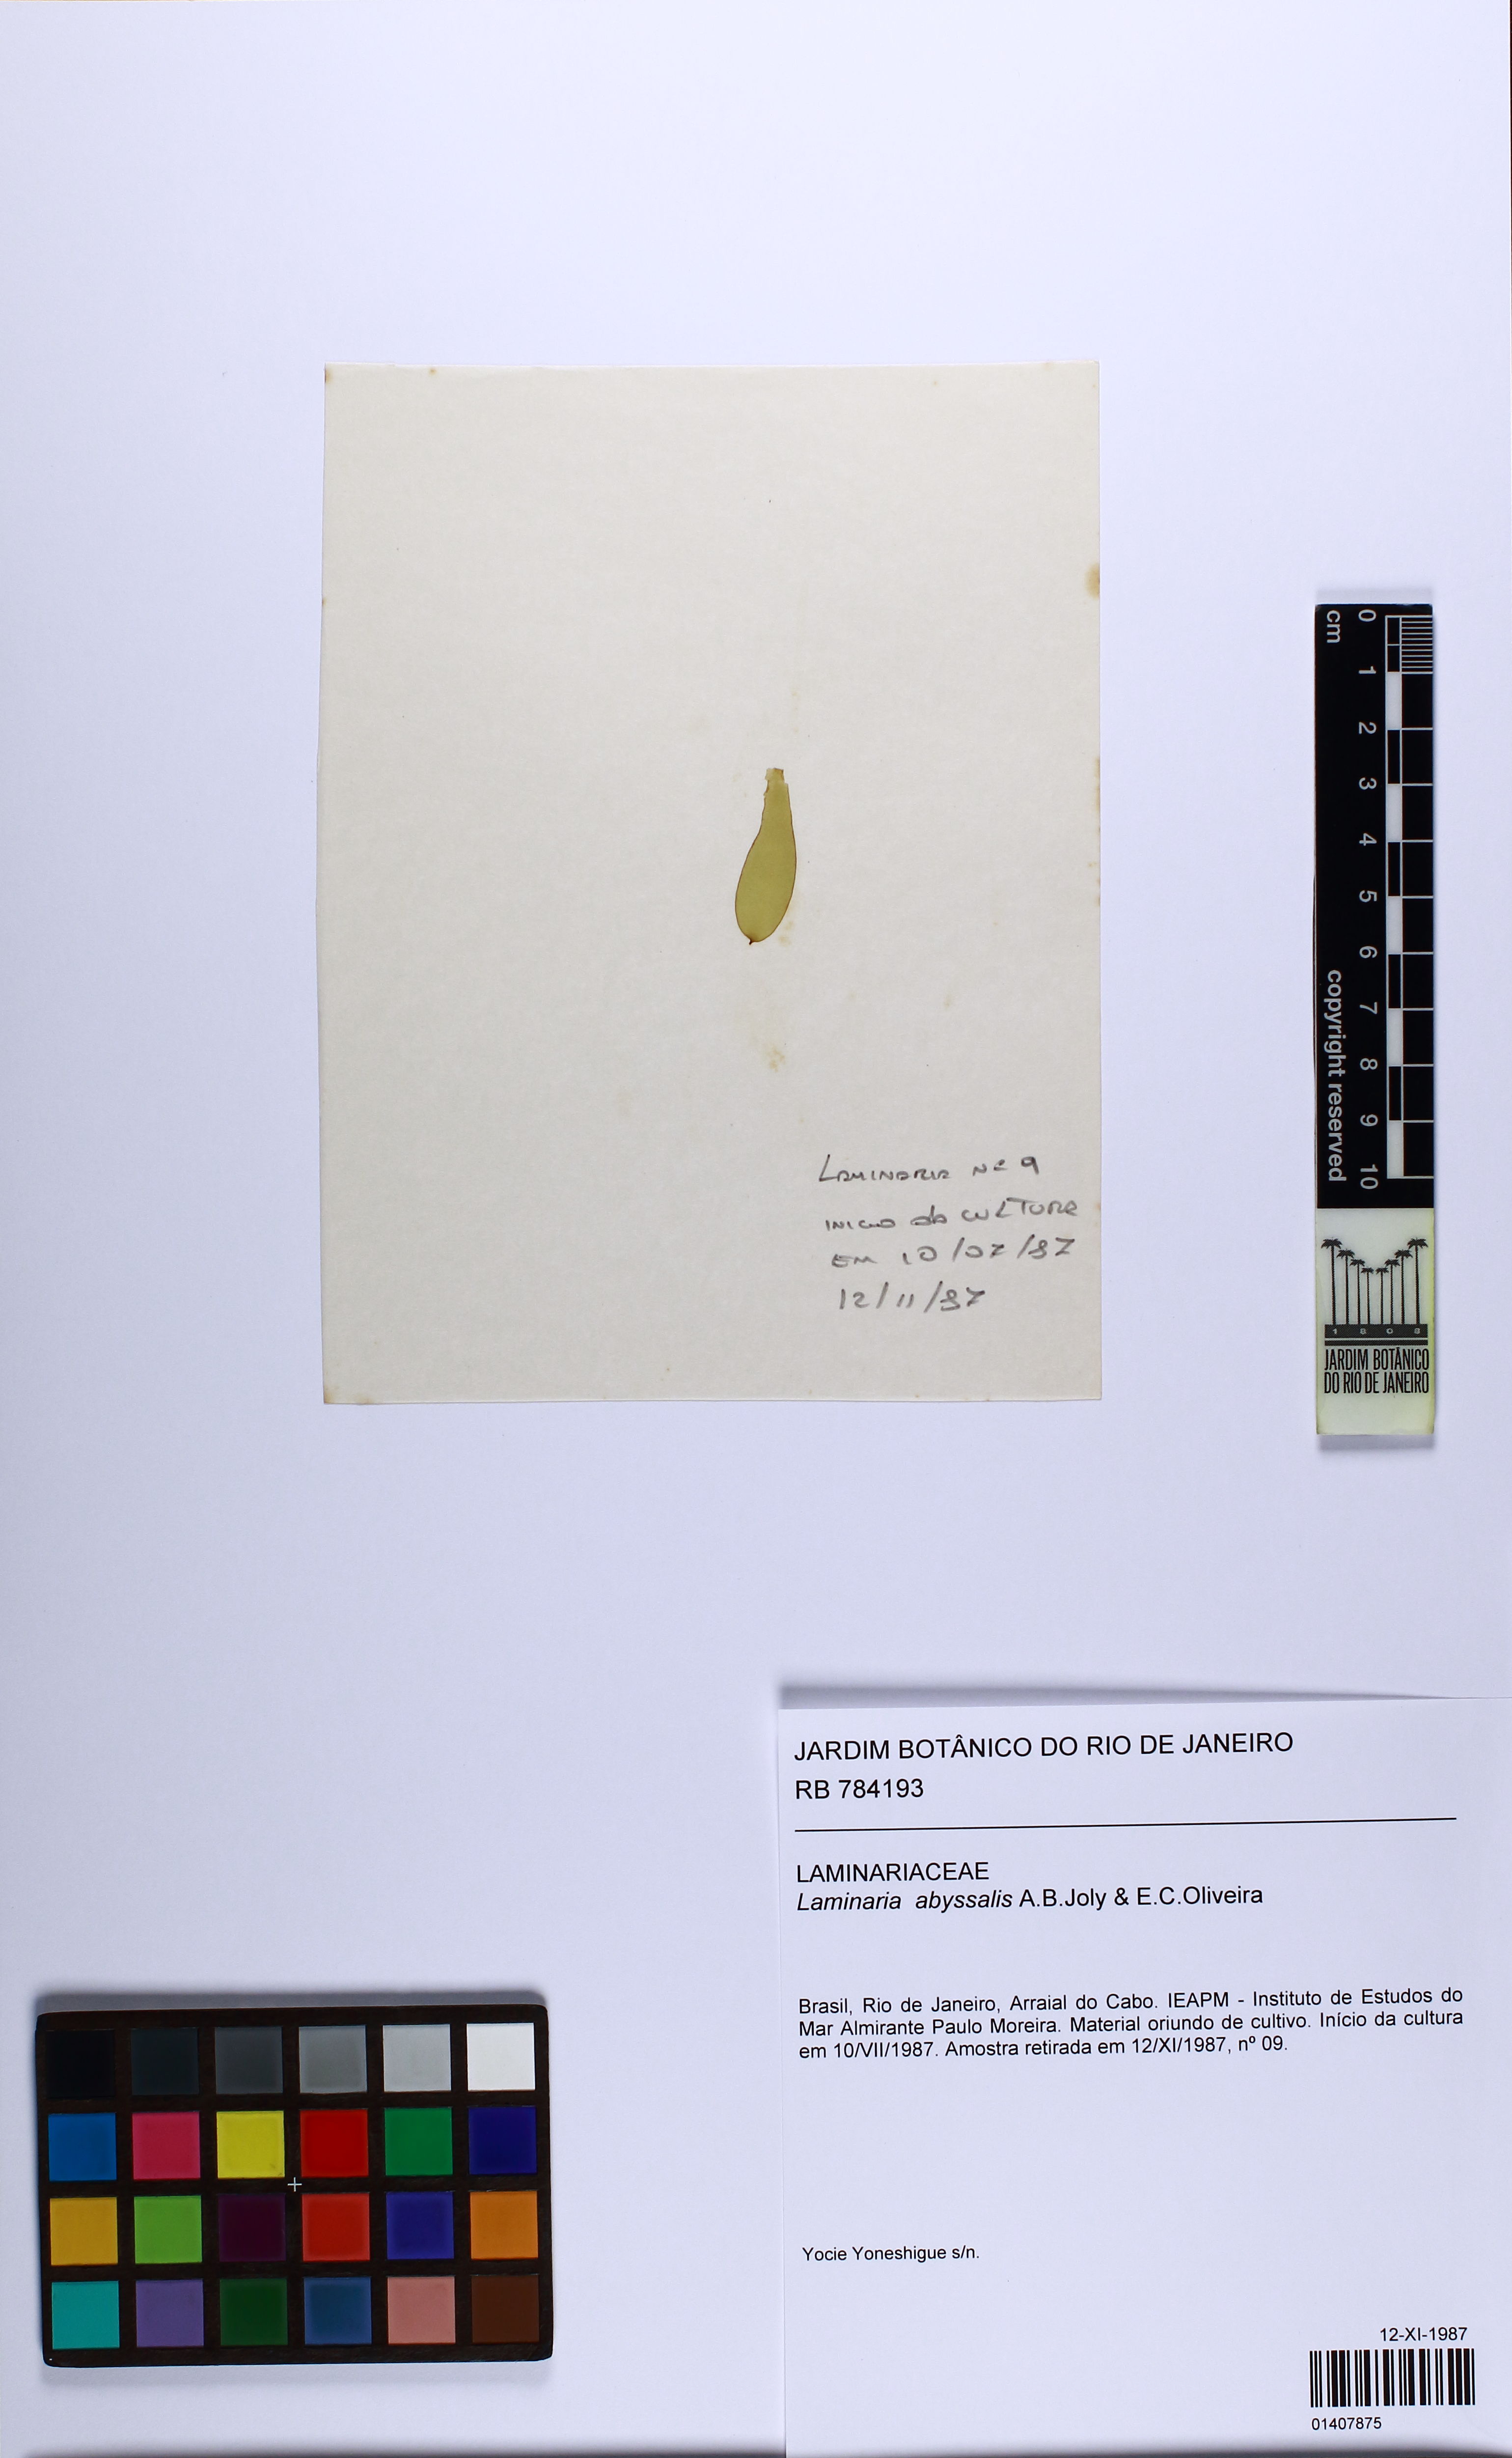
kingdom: Chromista
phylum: Ochrophyta
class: Phaeophyceae
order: Laminariales
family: Laminariaceae
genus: Laminaria
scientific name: Laminaria abyssalis
